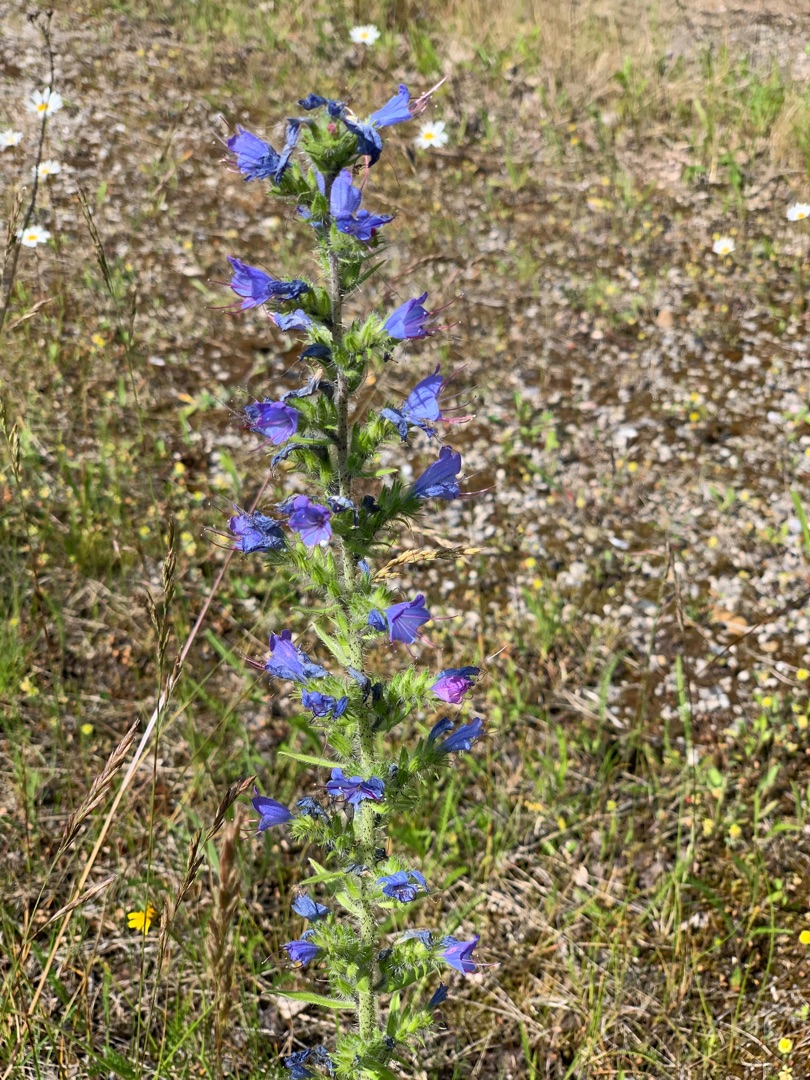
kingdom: Plantae
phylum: Tracheophyta
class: Magnoliopsida
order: Boraginales
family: Boraginaceae
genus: Echium
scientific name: Echium vulgare
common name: Slangehoved
